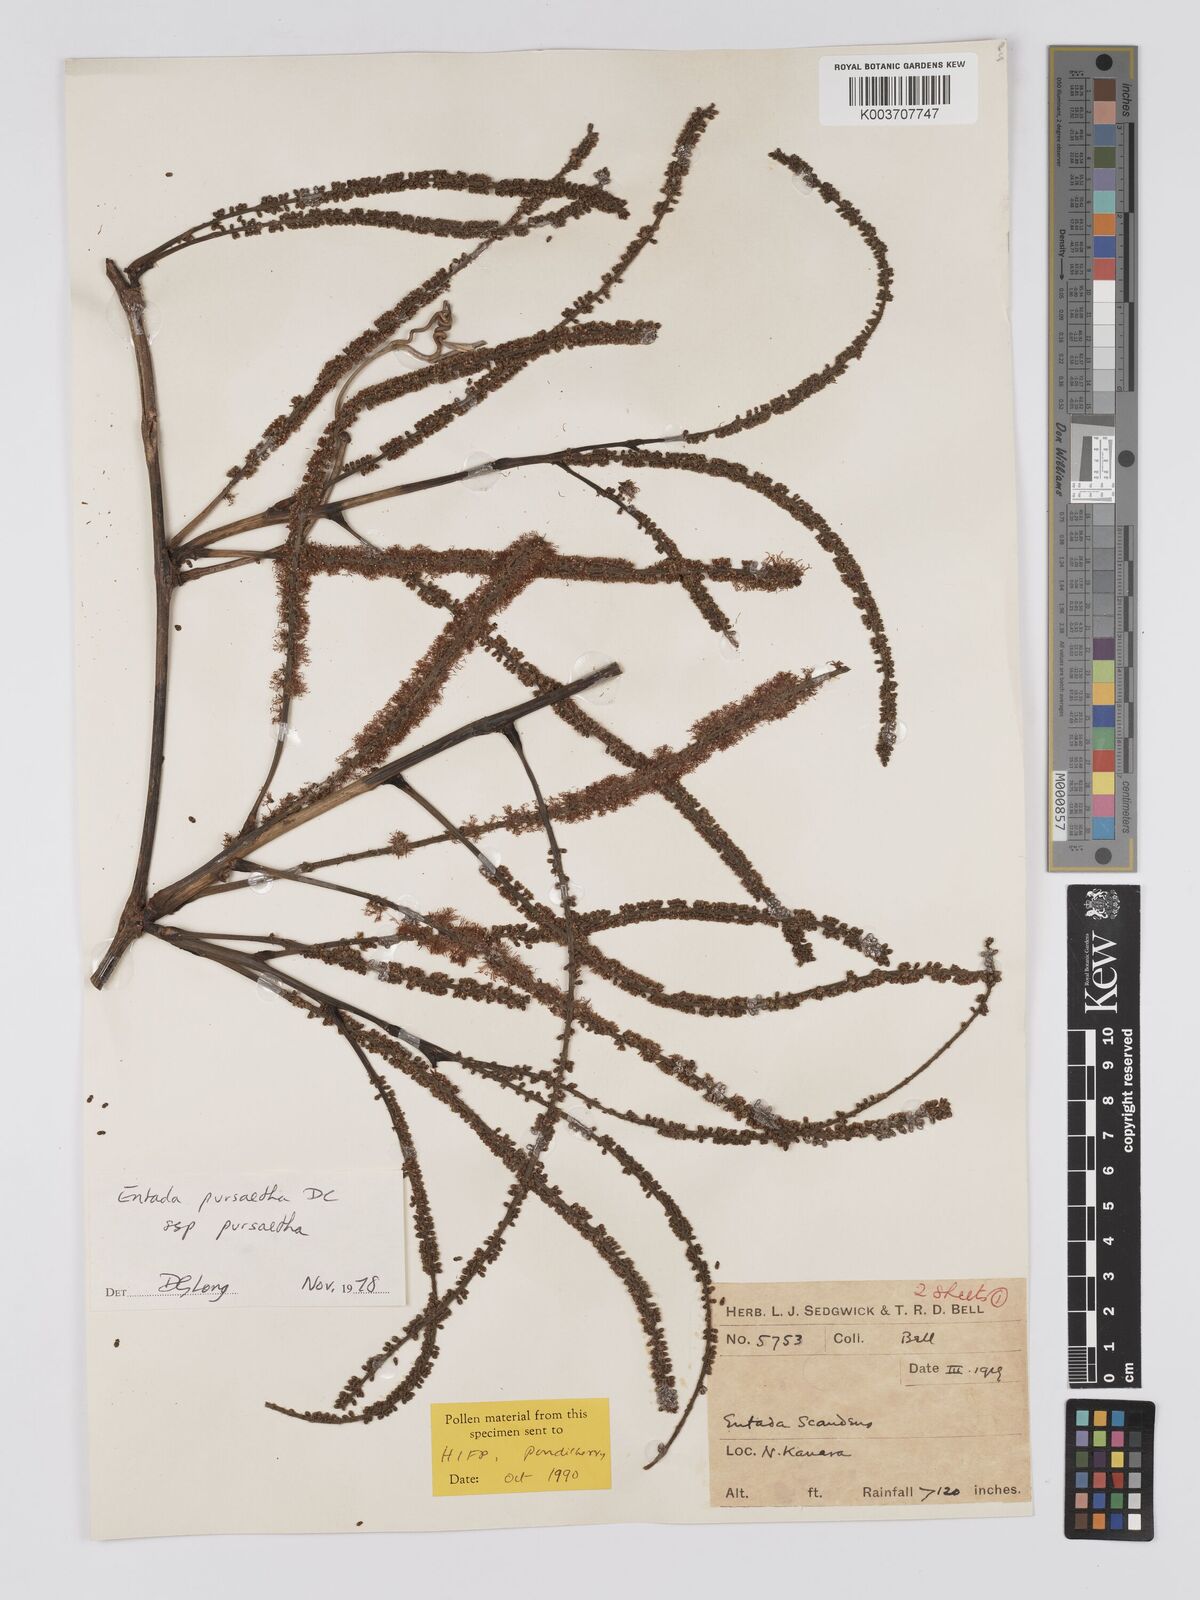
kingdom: Plantae
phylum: Tracheophyta
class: Magnoliopsida
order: Fabales
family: Fabaceae
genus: Entada
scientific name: Entada rheedei
